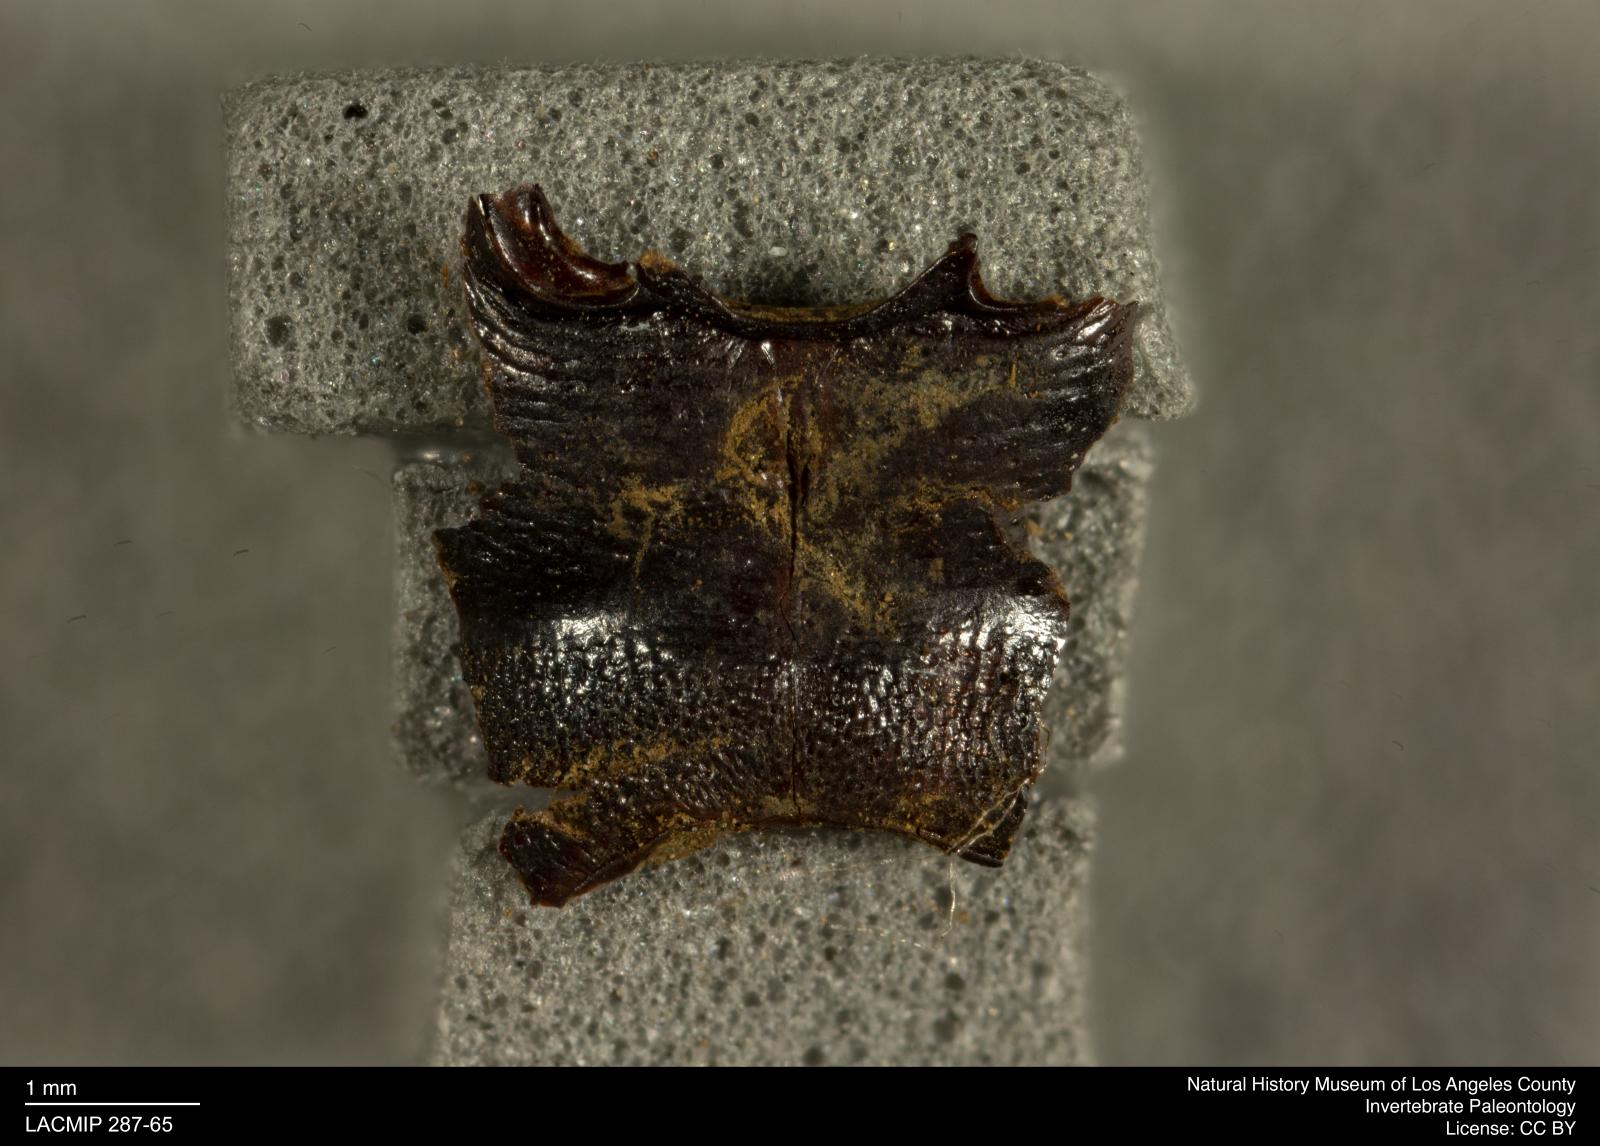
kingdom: Animalia
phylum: Arthropoda
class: Insecta
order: Coleoptera
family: Staphylinidae
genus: Nicrophorus
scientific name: Nicrophorus marginatus
